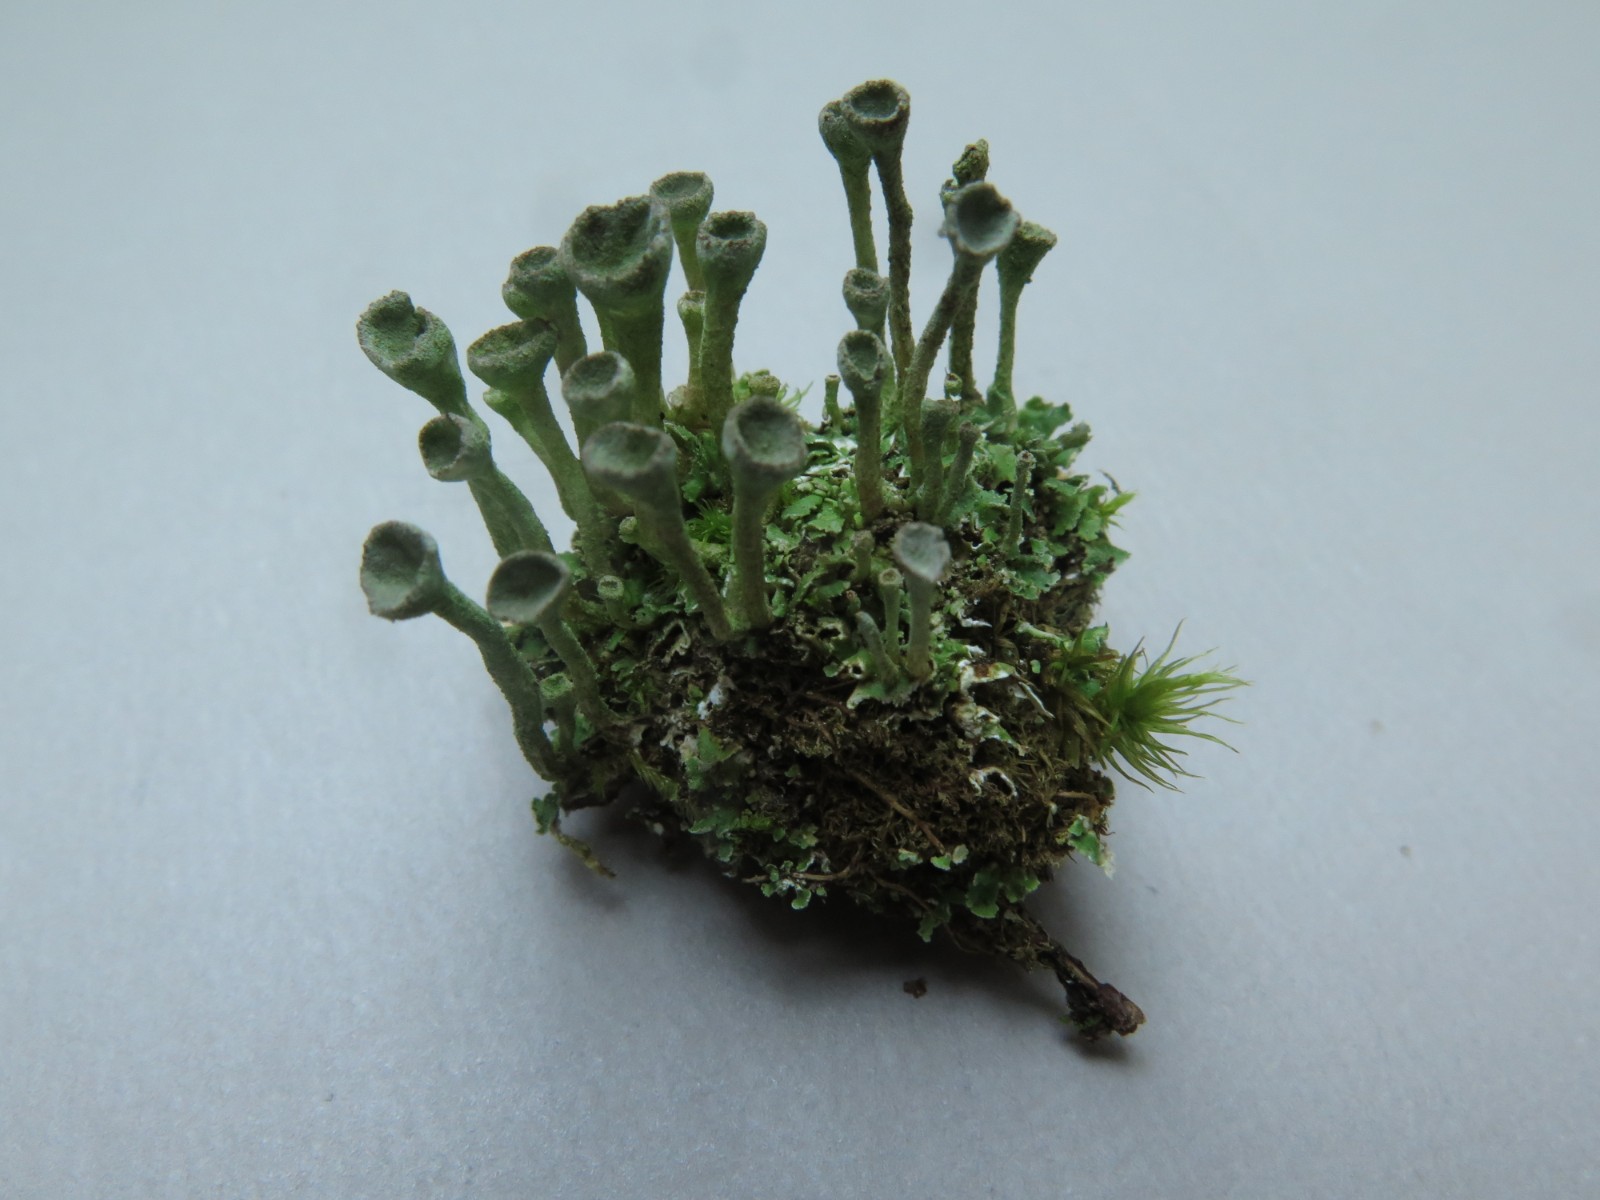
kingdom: Fungi
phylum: Ascomycota
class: Lecanoromycetes
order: Lecanorales
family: Cladoniaceae
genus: Cladonia
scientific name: Cladonia fimbriata
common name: bleggrøn bægerlav
